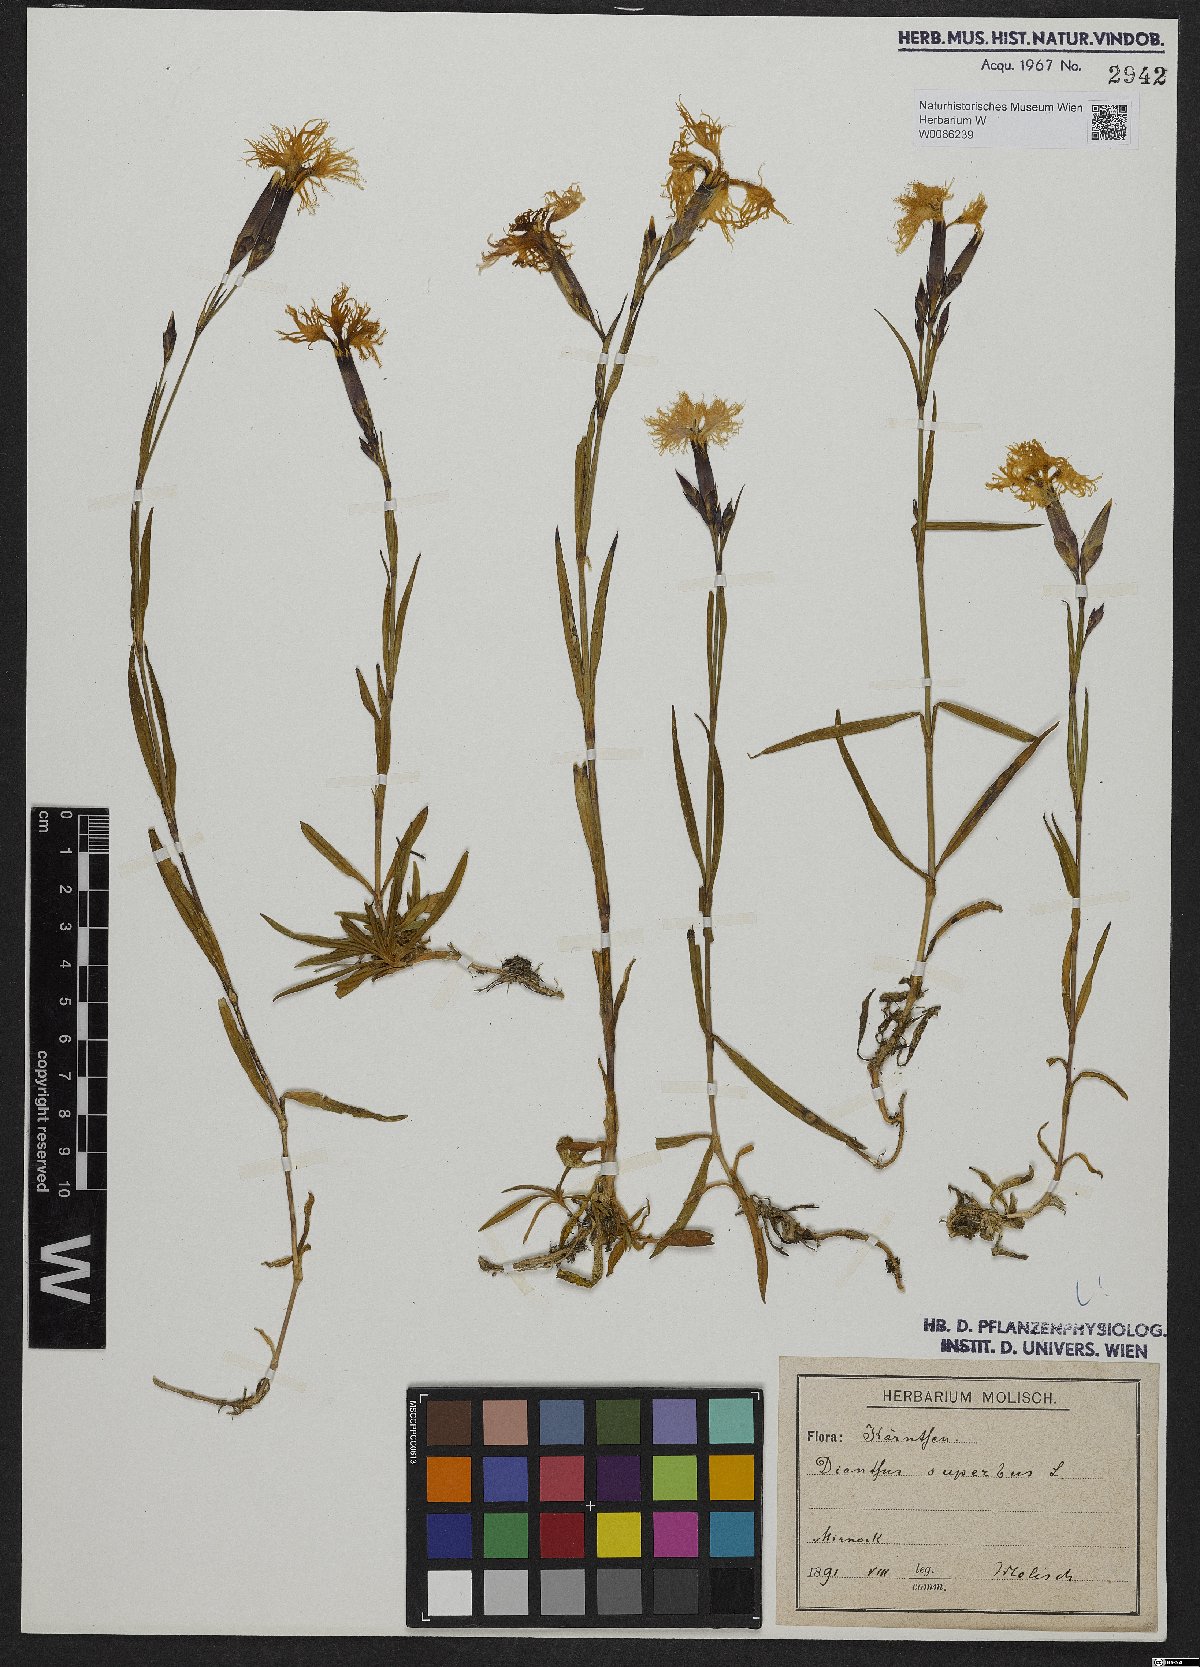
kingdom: Plantae
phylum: Tracheophyta
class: Magnoliopsida
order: Caryophyllales
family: Caryophyllaceae
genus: Dianthus
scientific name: Dianthus superbus
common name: Fringed pink
